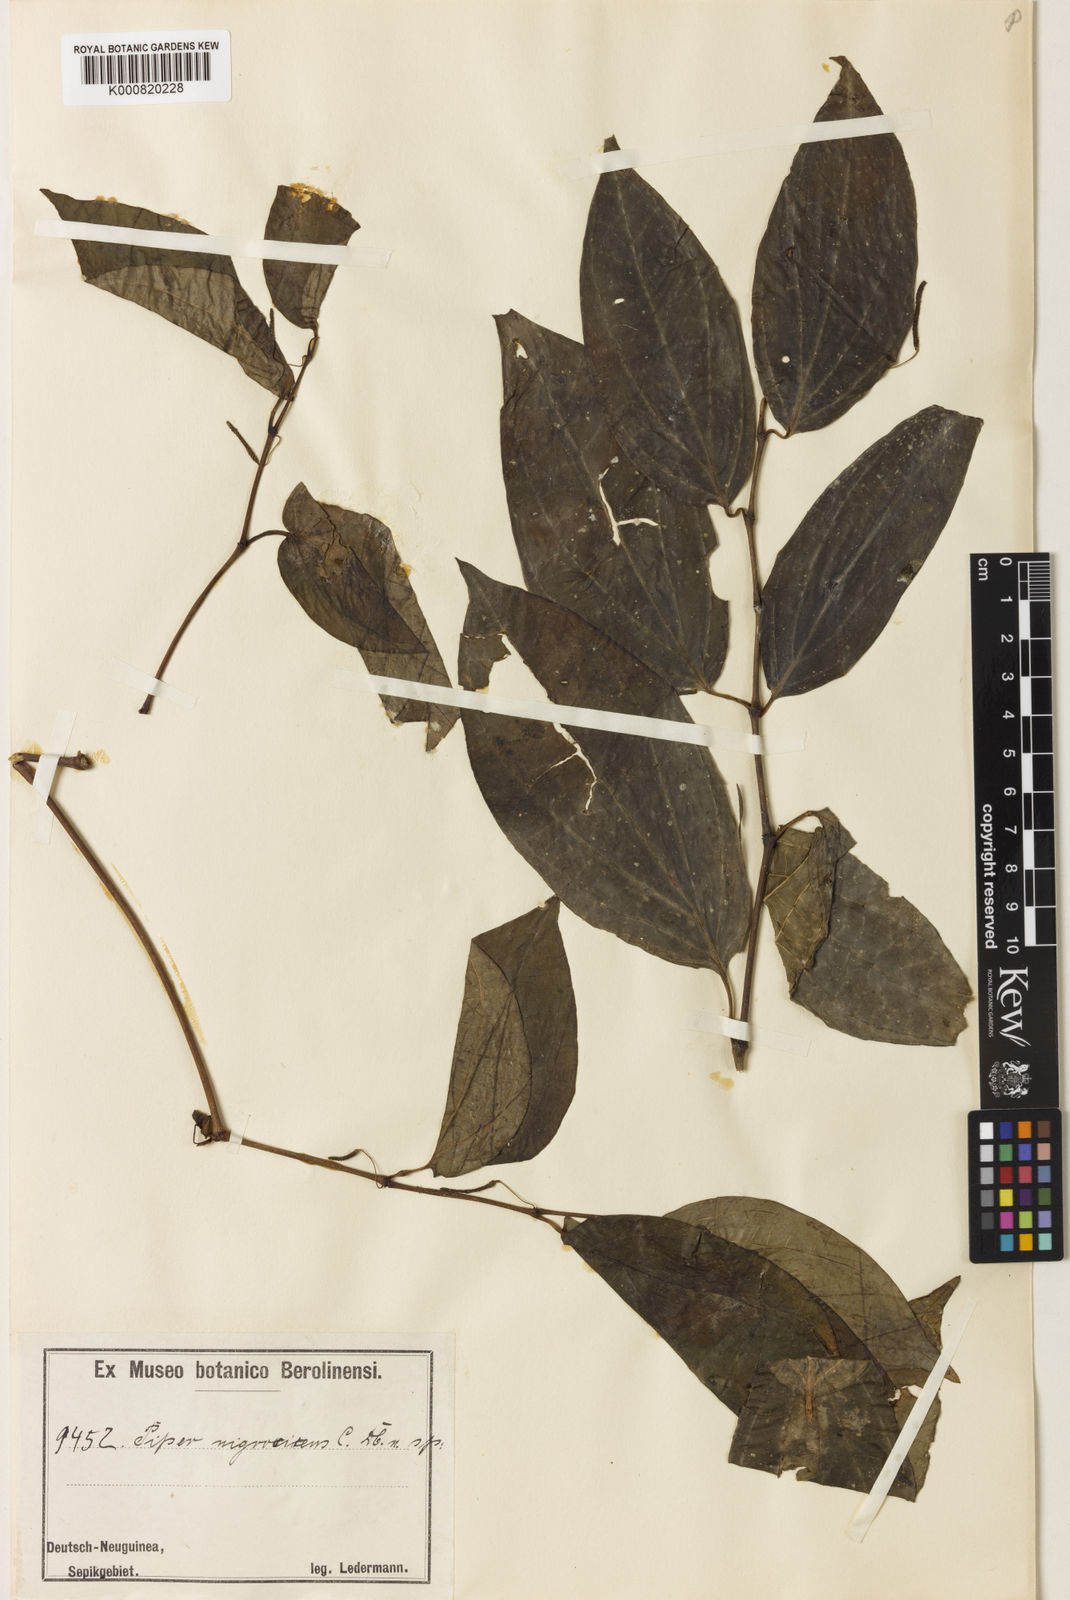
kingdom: Plantae
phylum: Tracheophyta
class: Magnoliopsida
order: Piperales
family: Piperaceae
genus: Piper
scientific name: Piper nigrovirens
